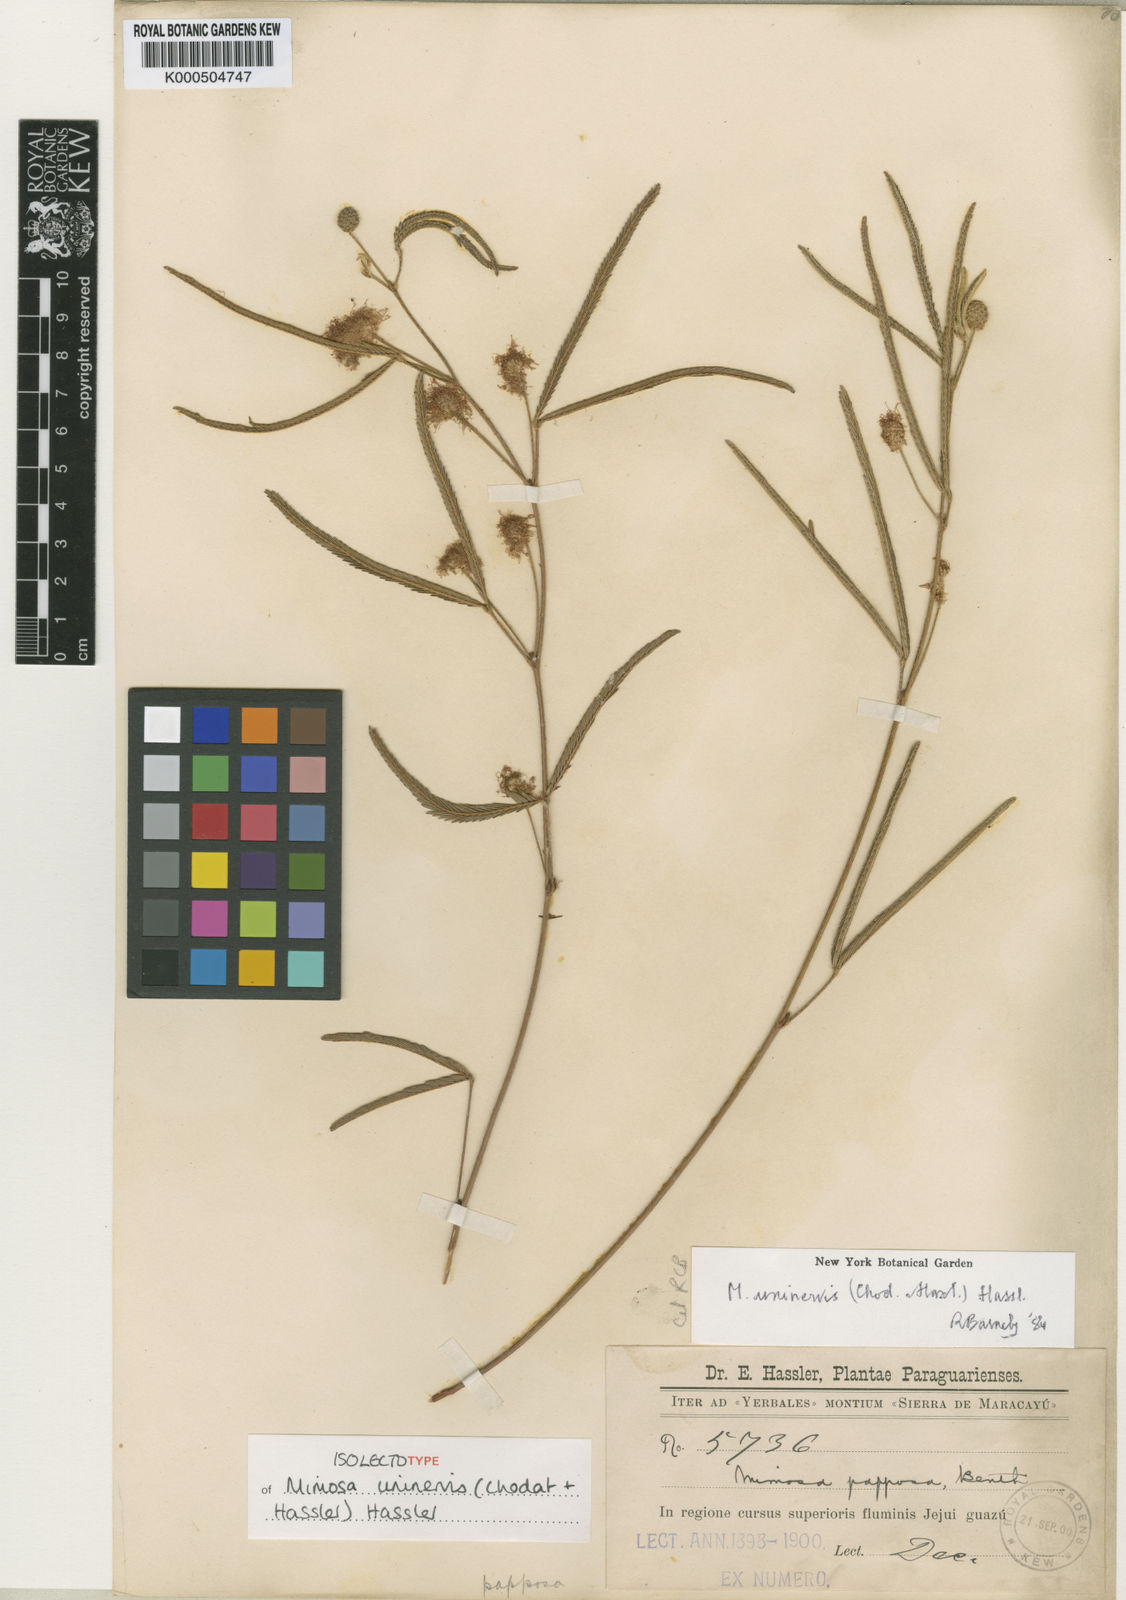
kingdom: Plantae
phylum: Tracheophyta
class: Magnoliopsida
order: Fabales
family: Fabaceae
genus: Mimosa
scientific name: Mimosa uninervis
